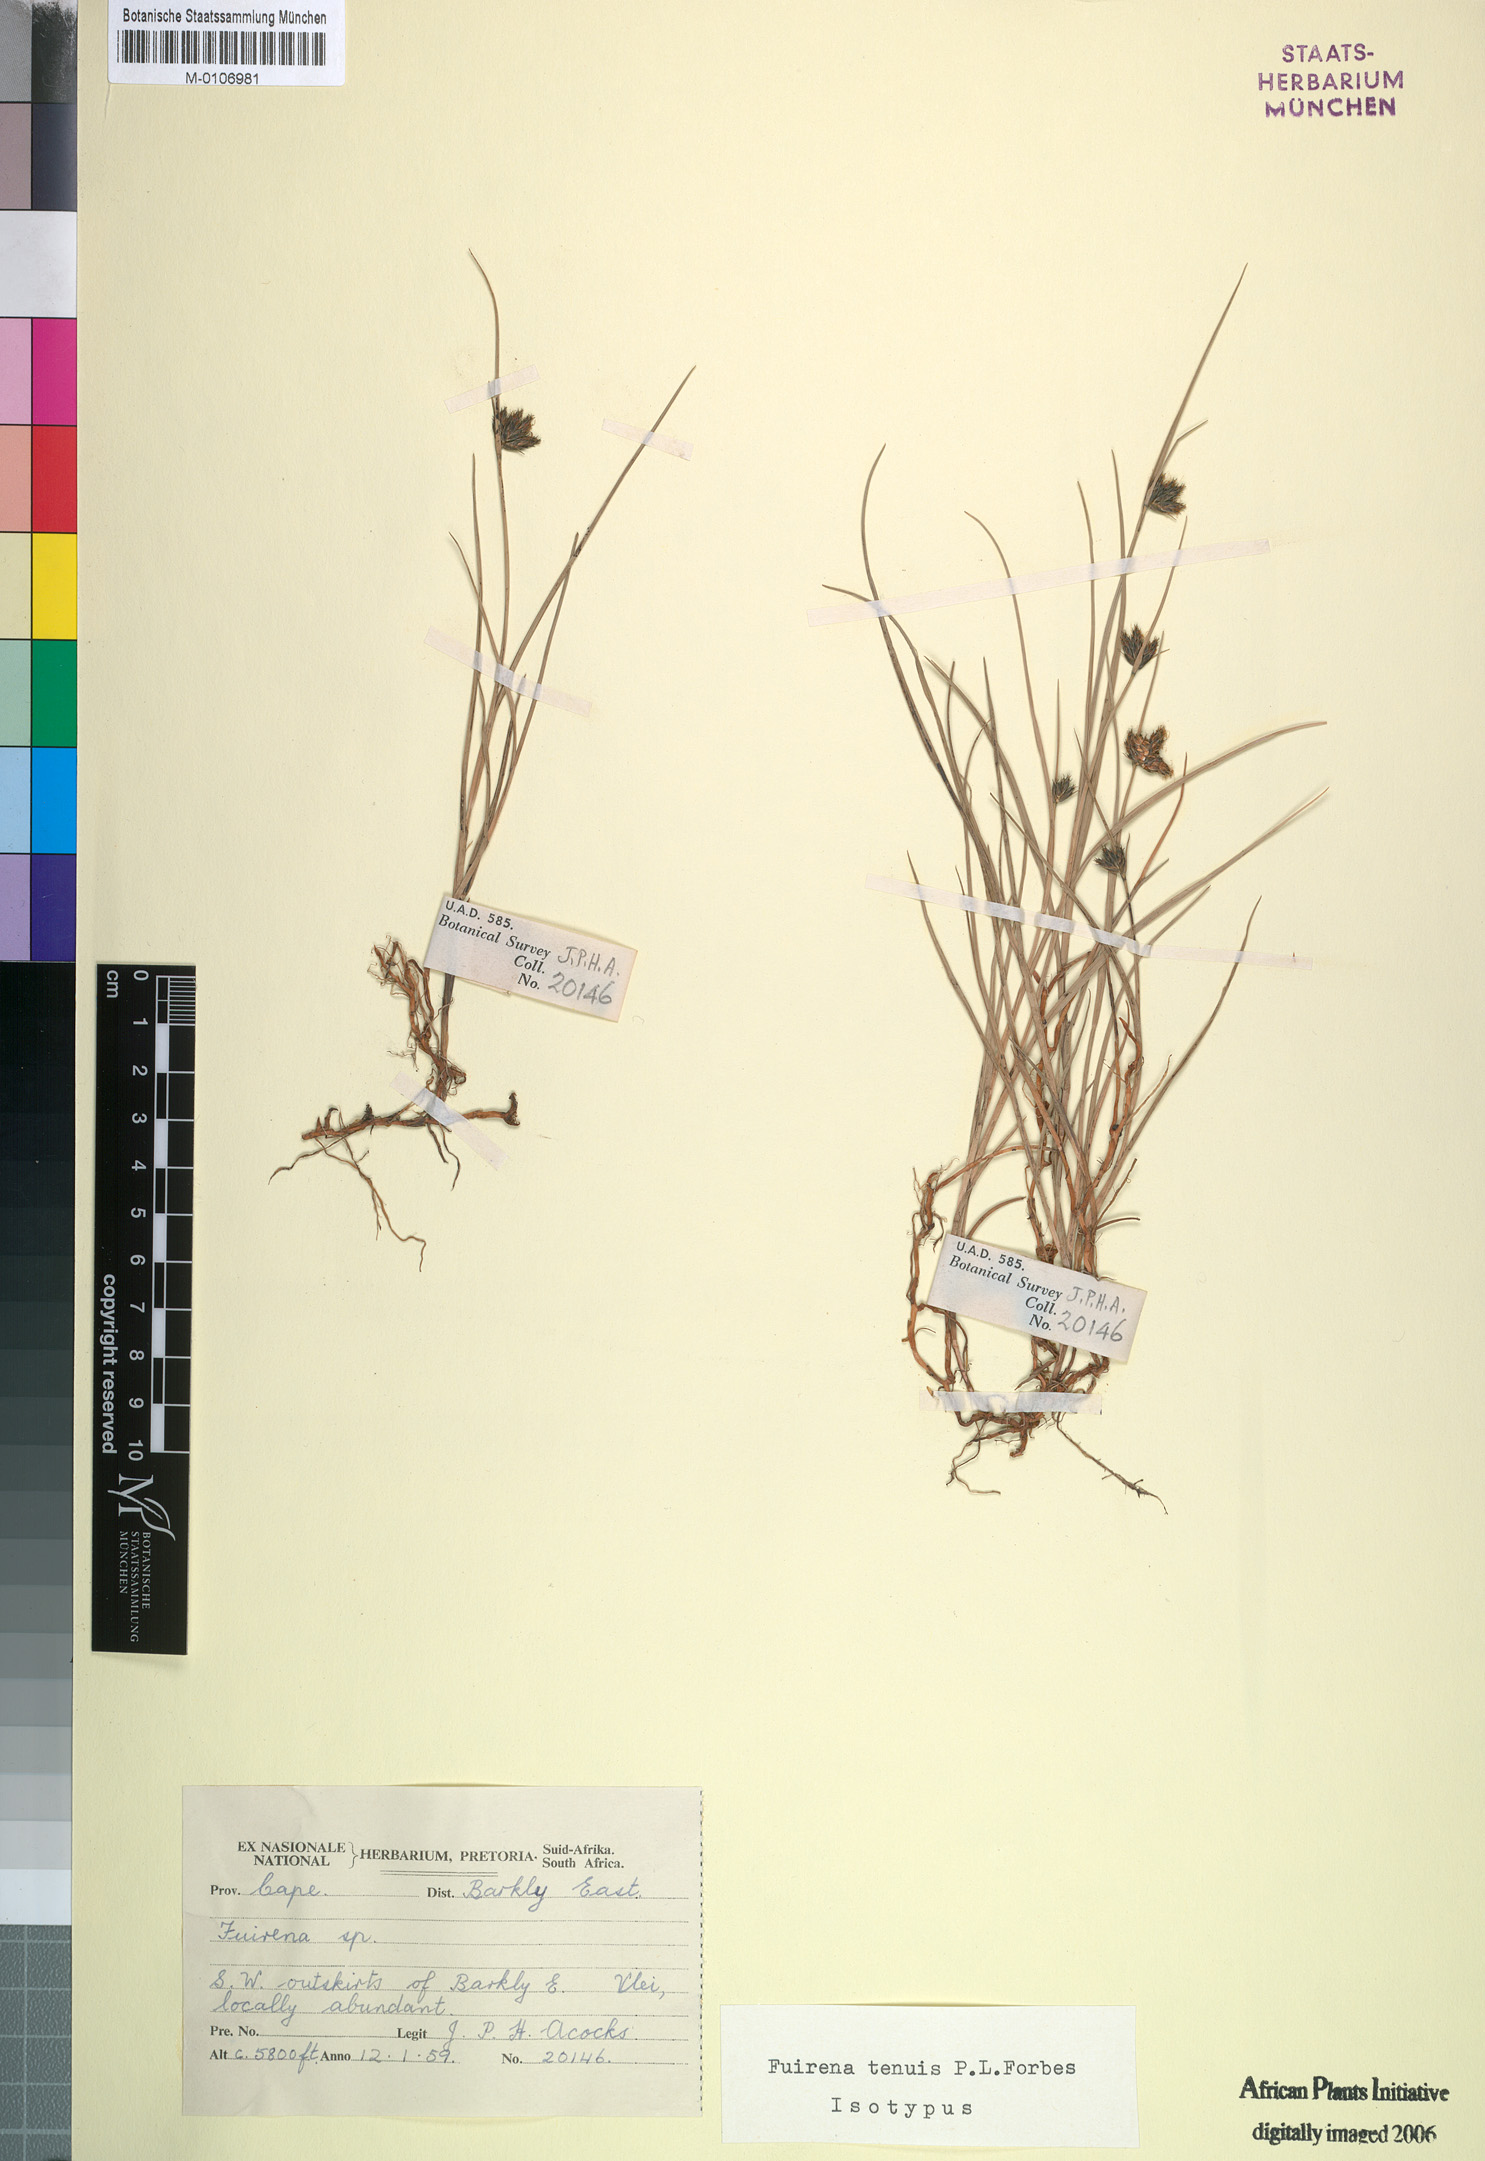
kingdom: Plantae
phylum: Tracheophyta
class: Liliopsida
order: Poales
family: Cyperaceae
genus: Fuirena
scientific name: Fuirena tenuis
